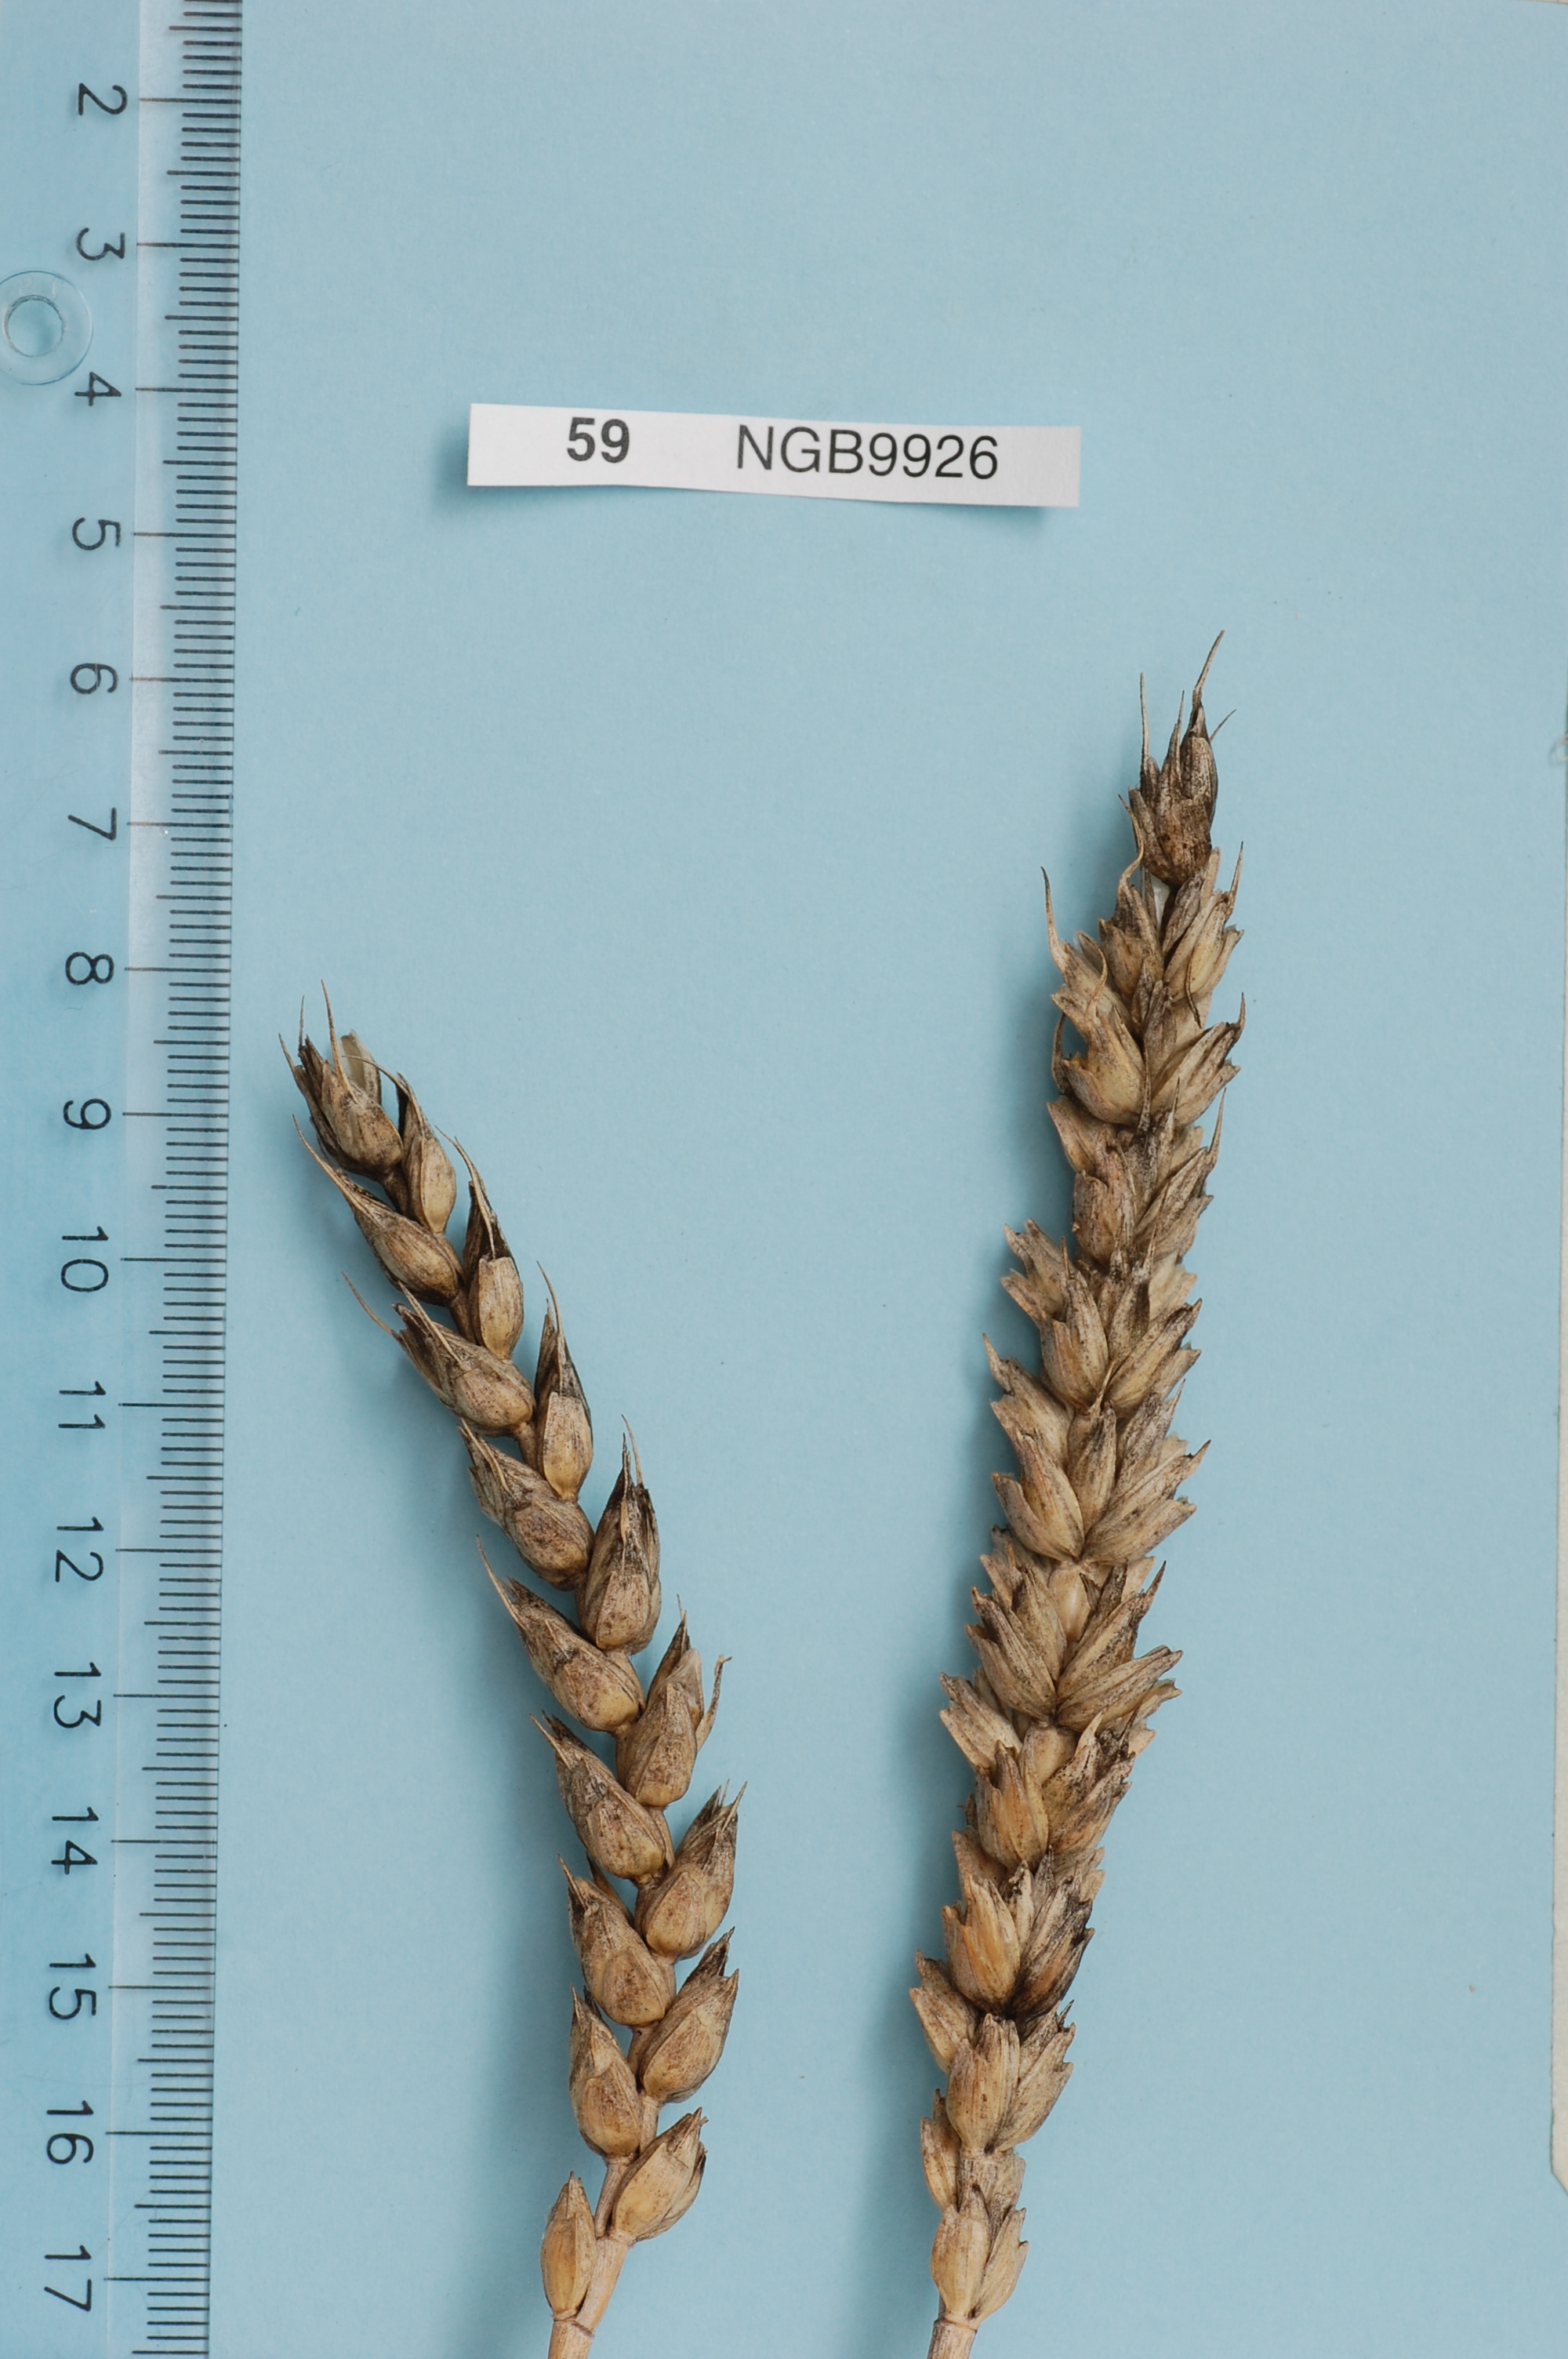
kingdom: Plantae
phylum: Tracheophyta
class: Liliopsida
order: Poales
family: Poaceae
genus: Triticum
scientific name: Triticum aestivum
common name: Common wheat
